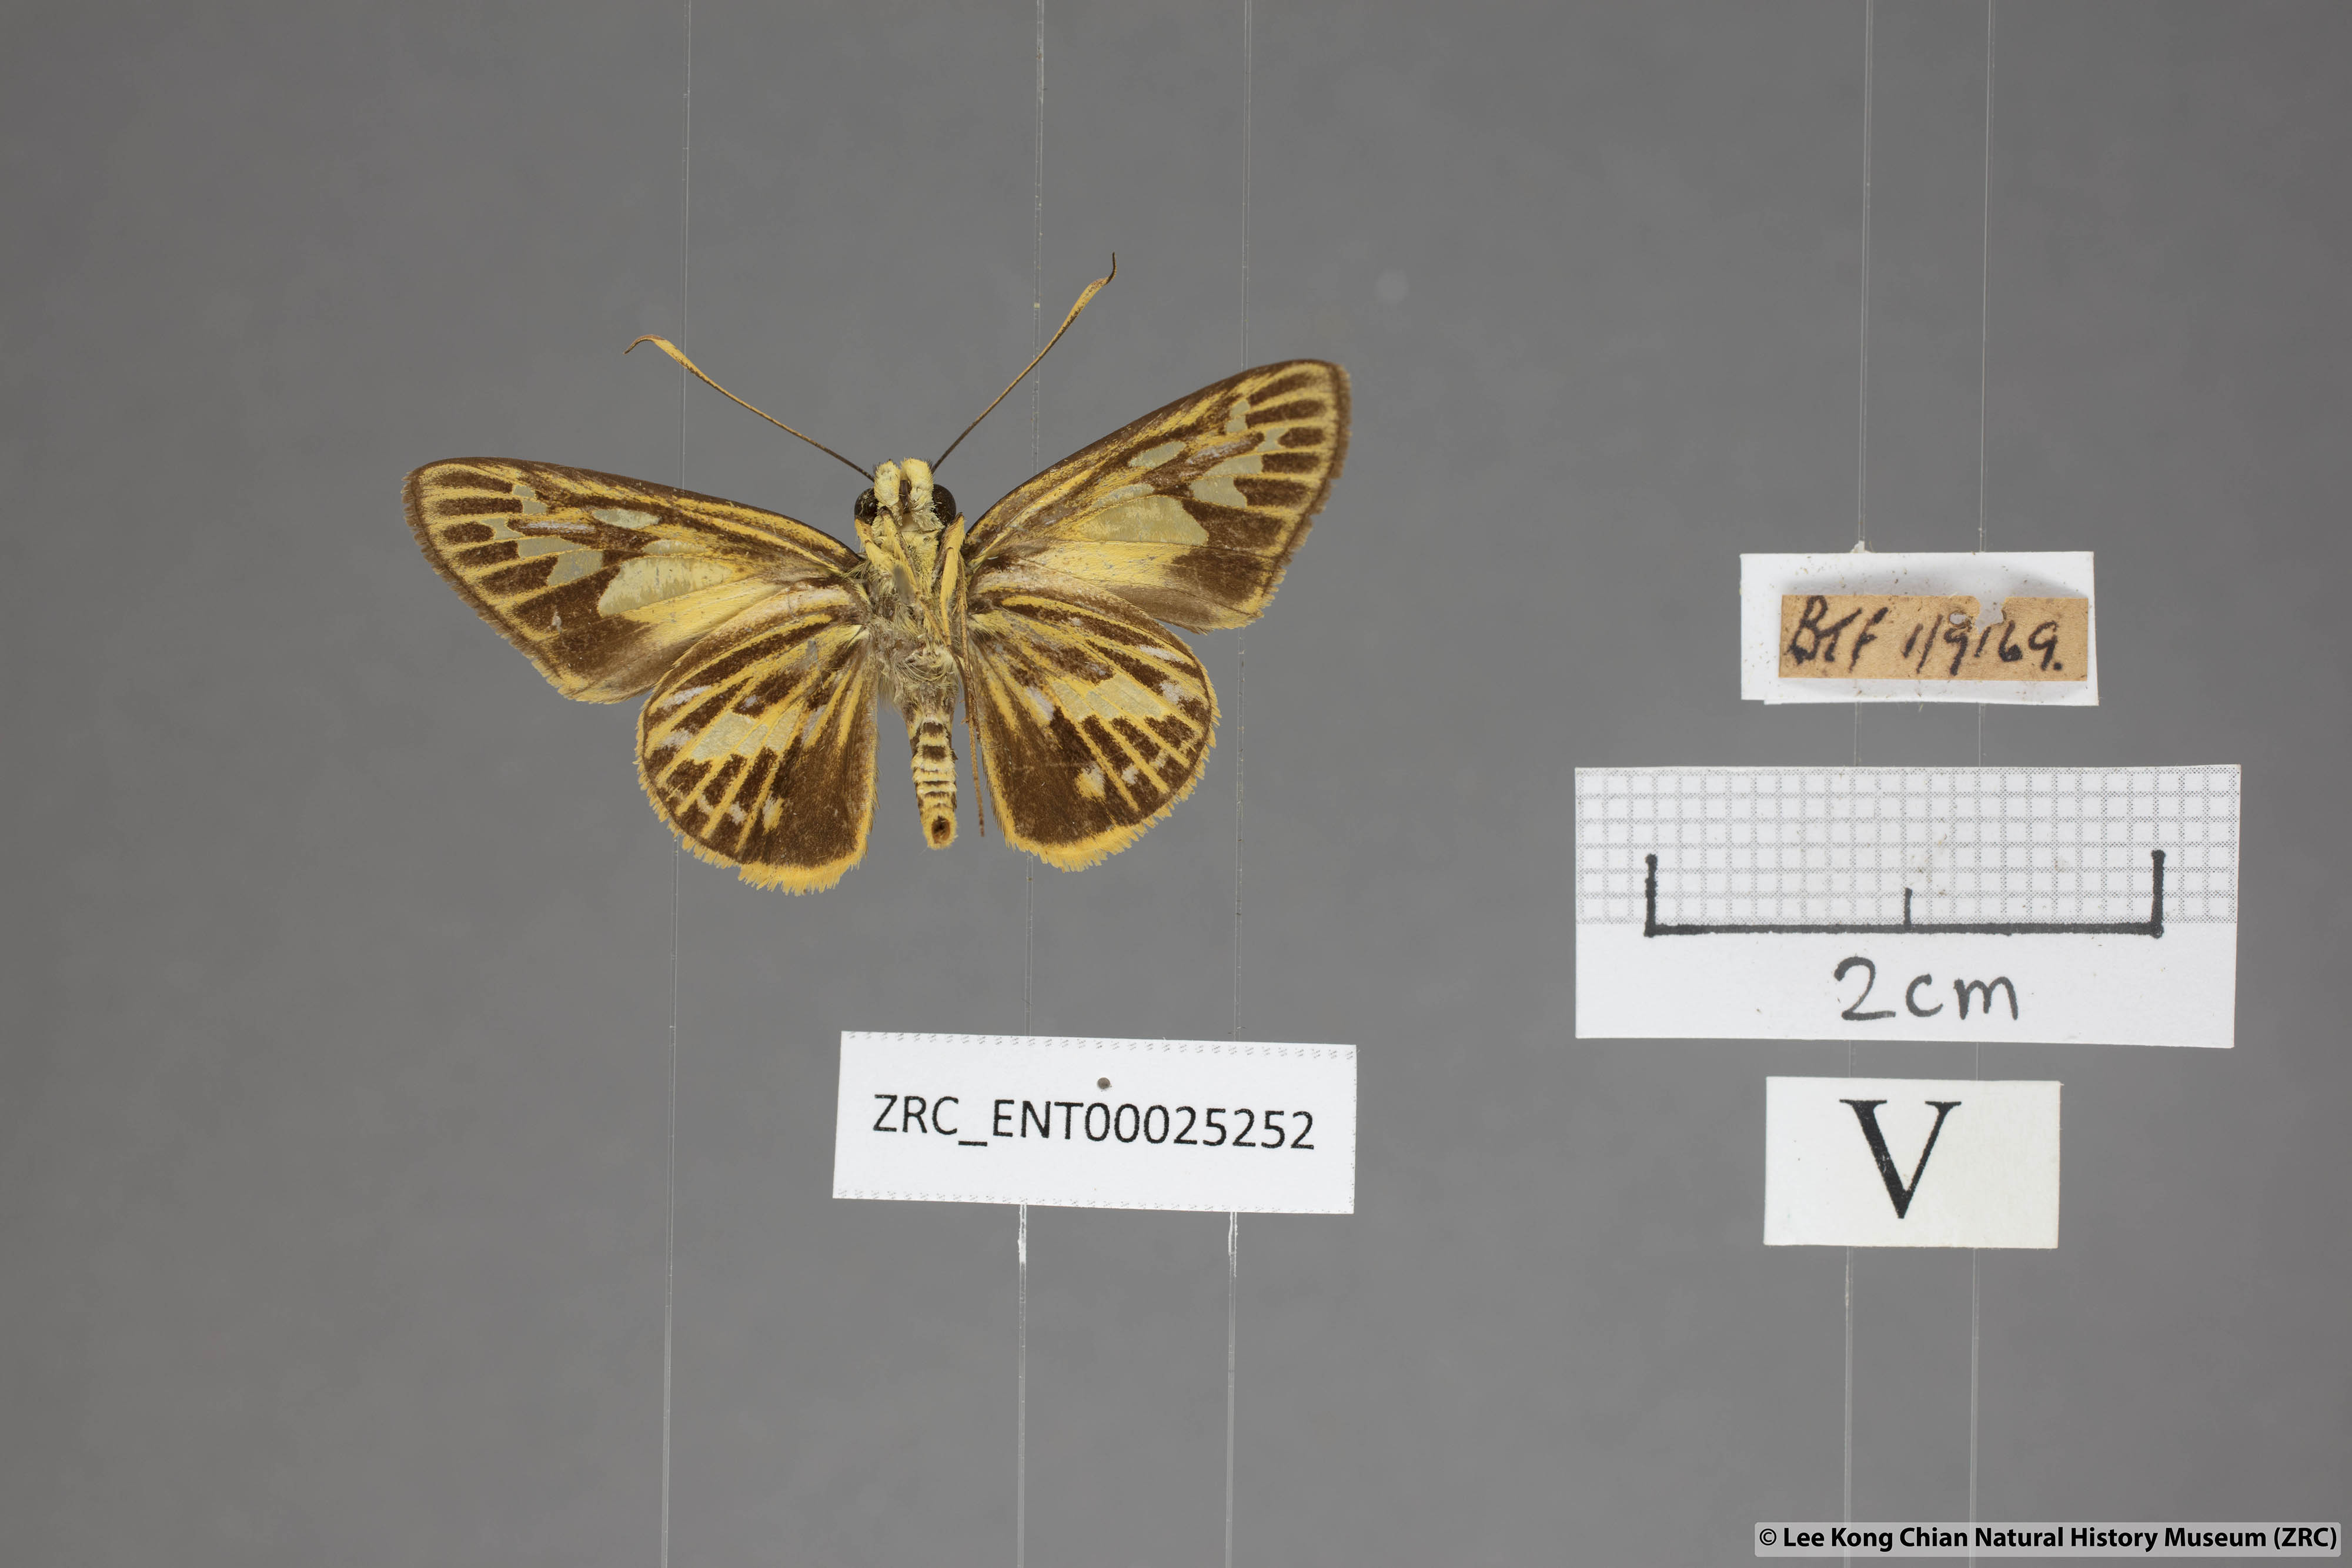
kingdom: Animalia
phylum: Arthropoda
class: Insecta
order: Lepidoptera
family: Hesperiidae
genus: Pyroneura
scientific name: Pyroneura latoia
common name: Yellow vein lancer
